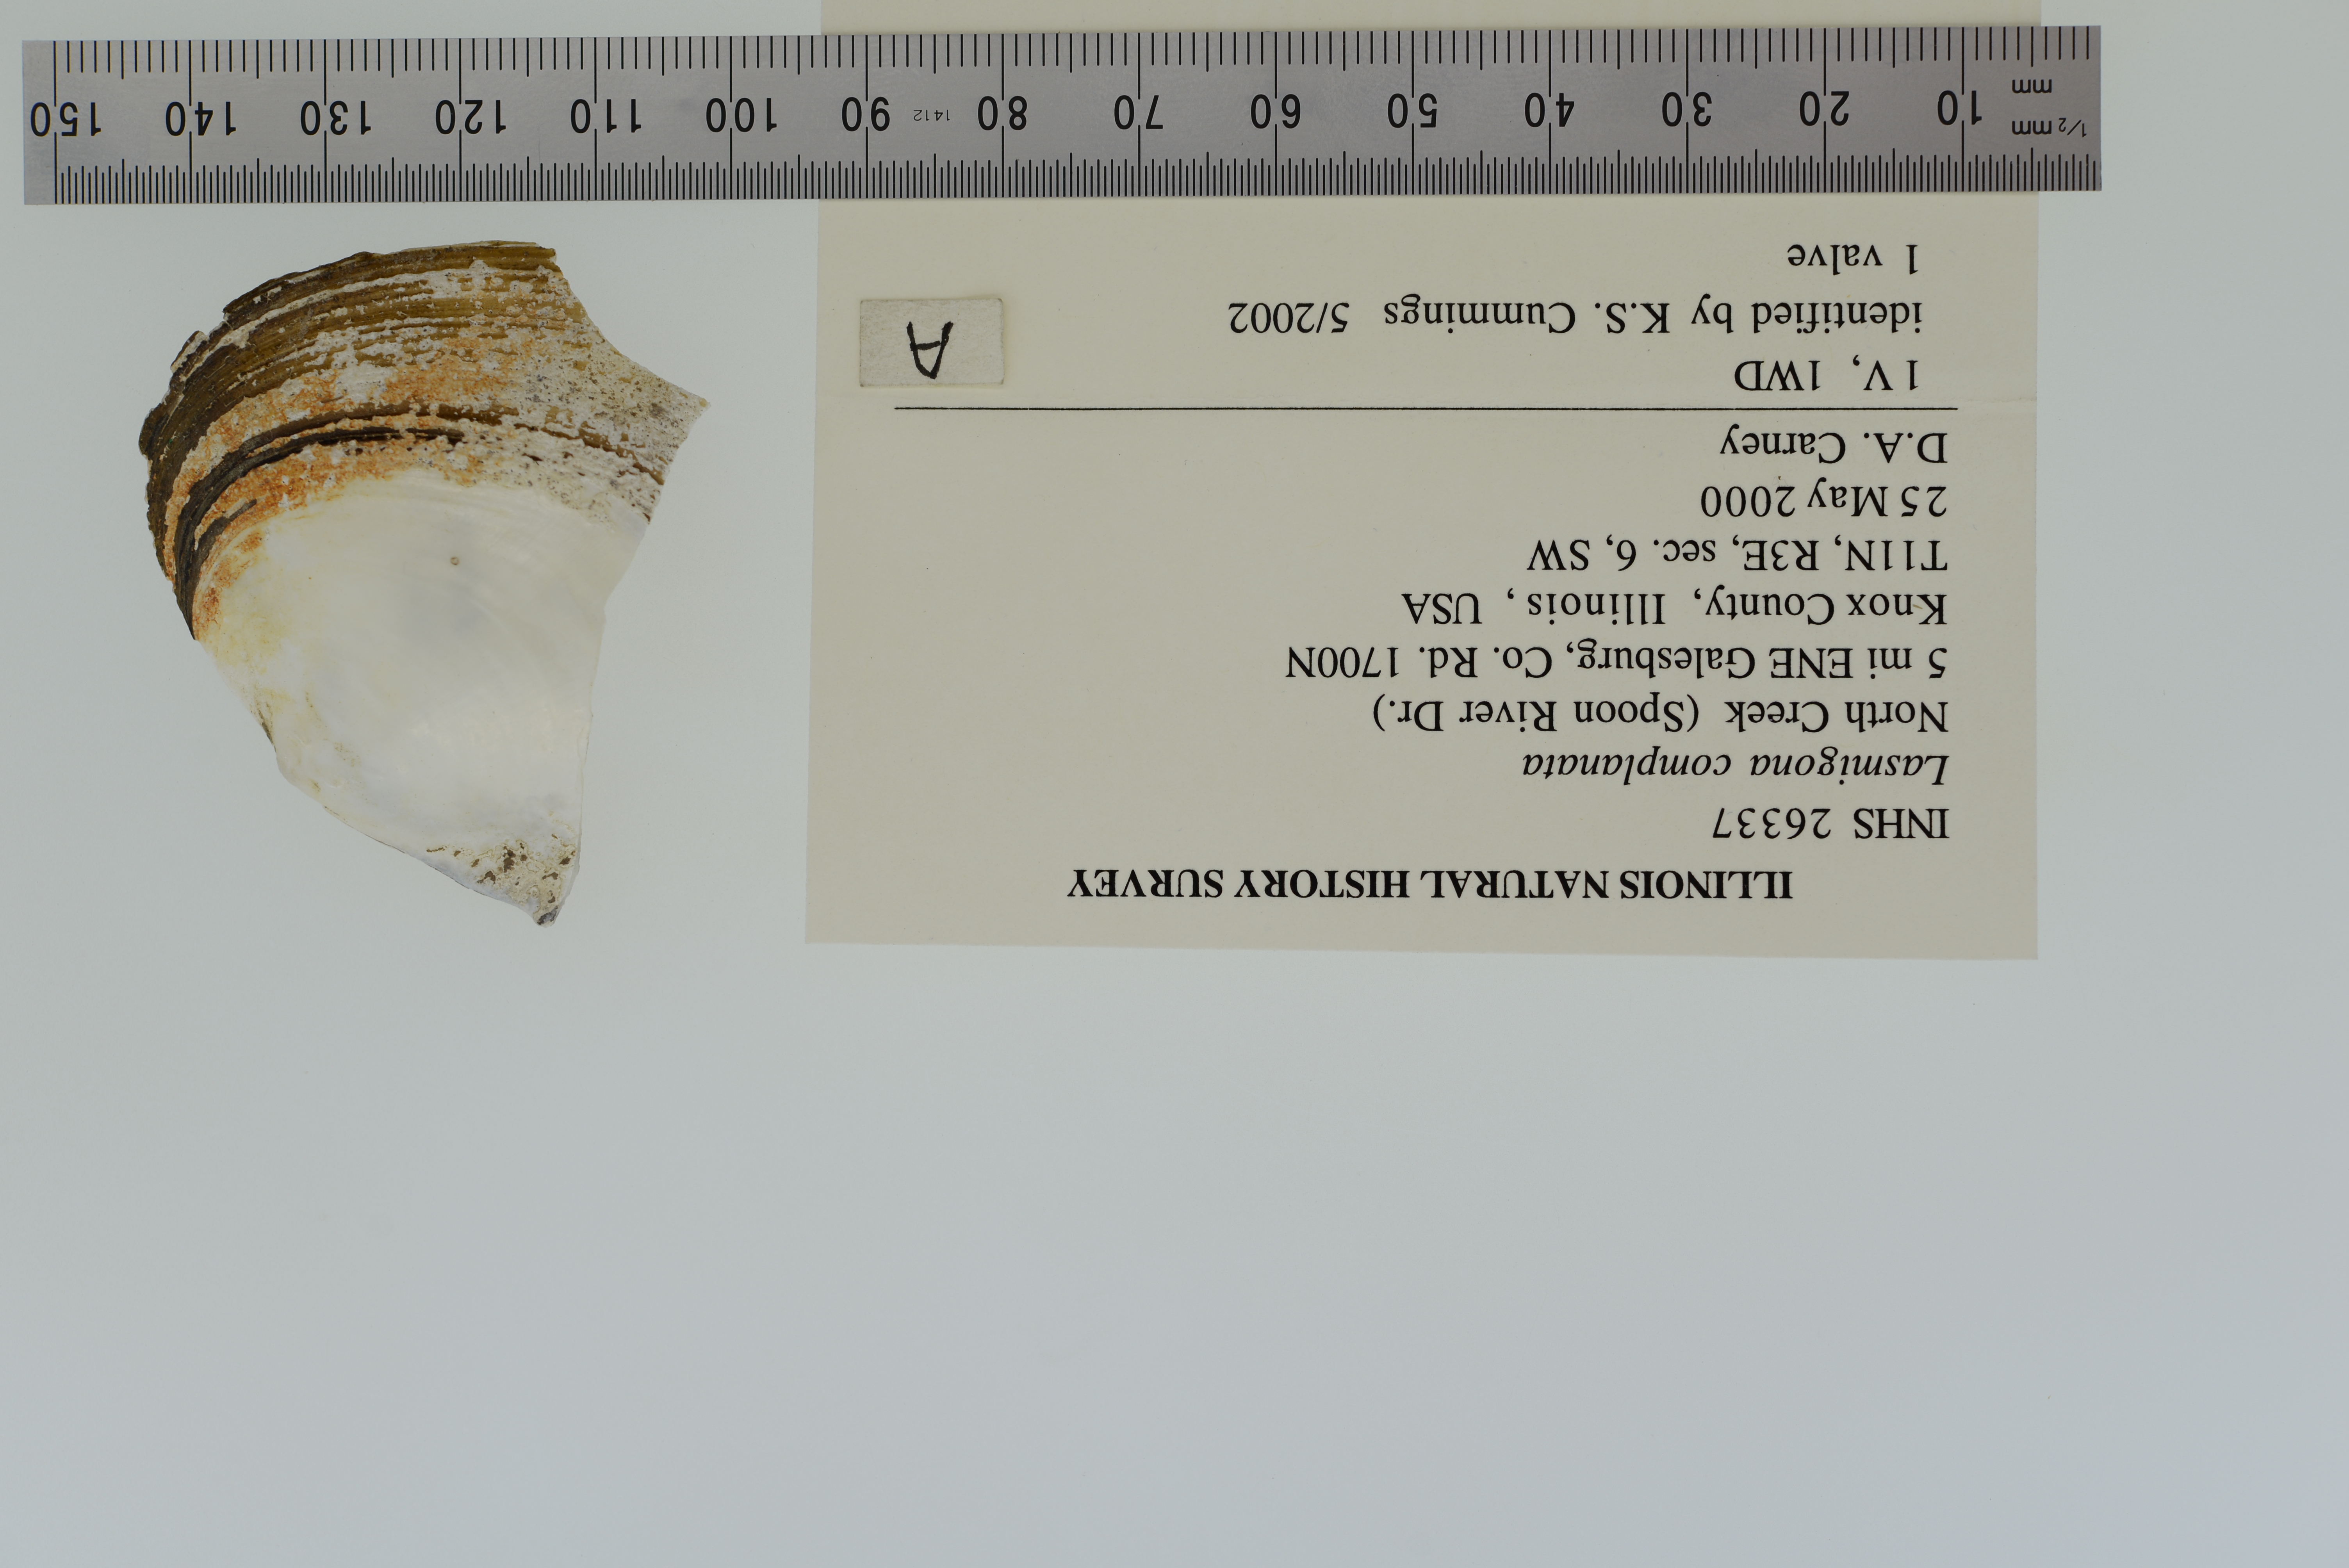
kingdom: Animalia
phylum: Mollusca
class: Bivalvia
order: Unionida
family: Unionidae
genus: Lasmigona
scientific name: Lasmigona complanata
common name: White heelsplitter
